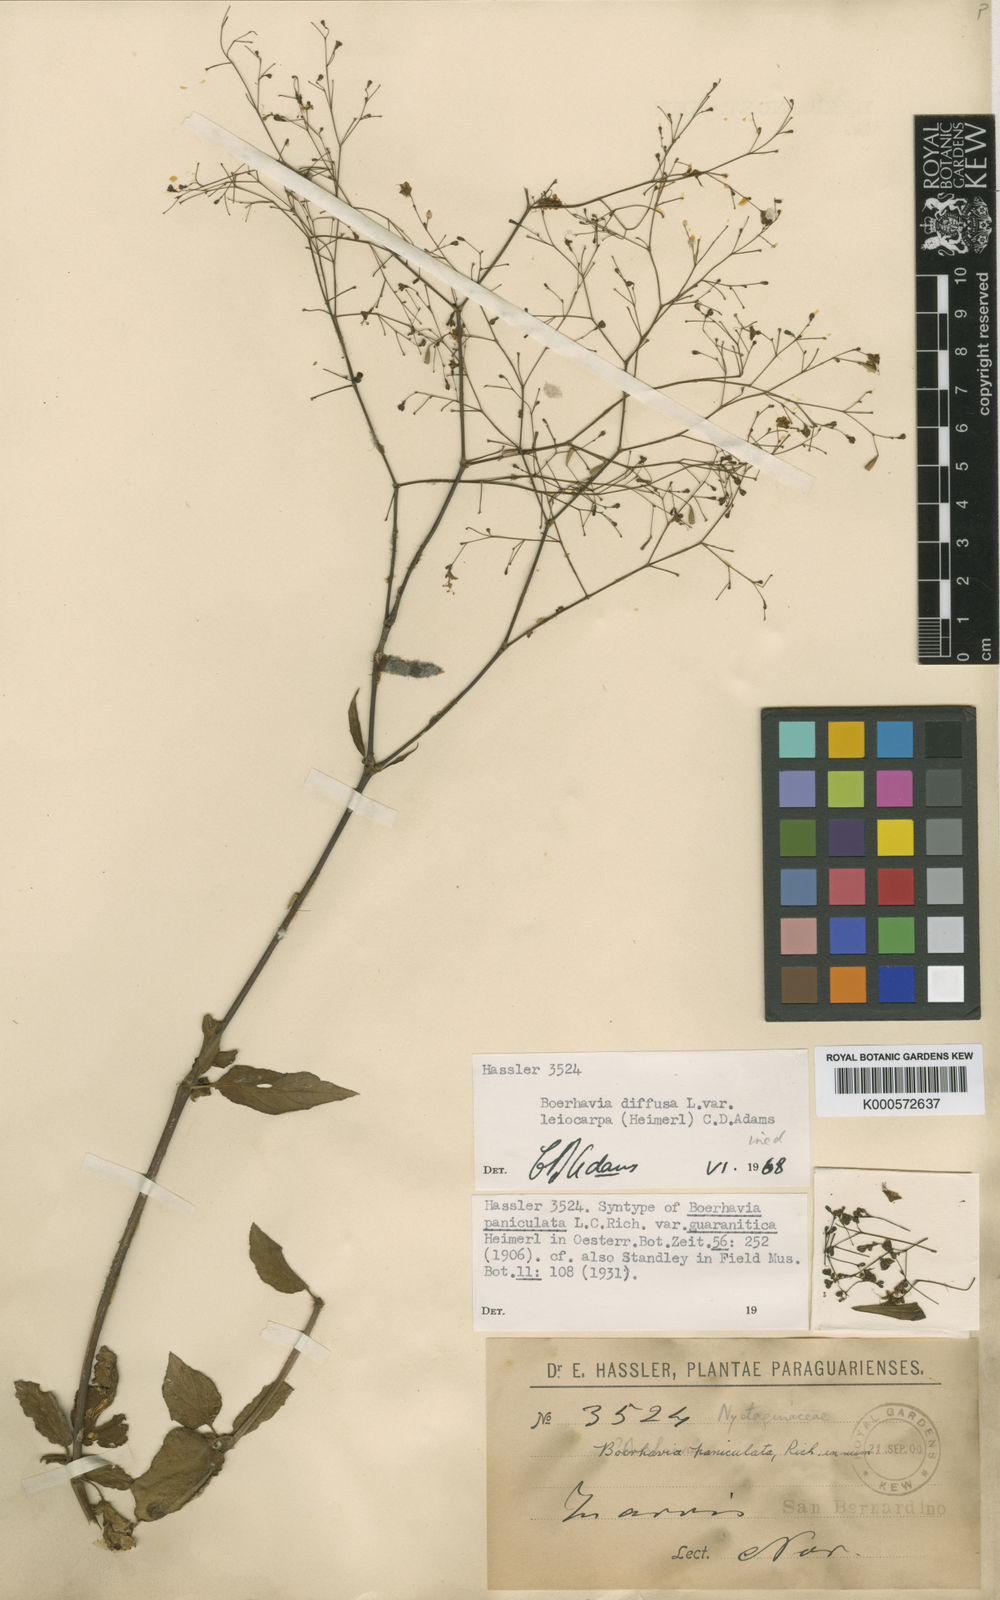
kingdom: Plantae
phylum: Tracheophyta
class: Magnoliopsida
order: Caryophyllales
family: Nyctaginaceae
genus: Boerhavia
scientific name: Boerhavia diffusa
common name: Red spiderling
